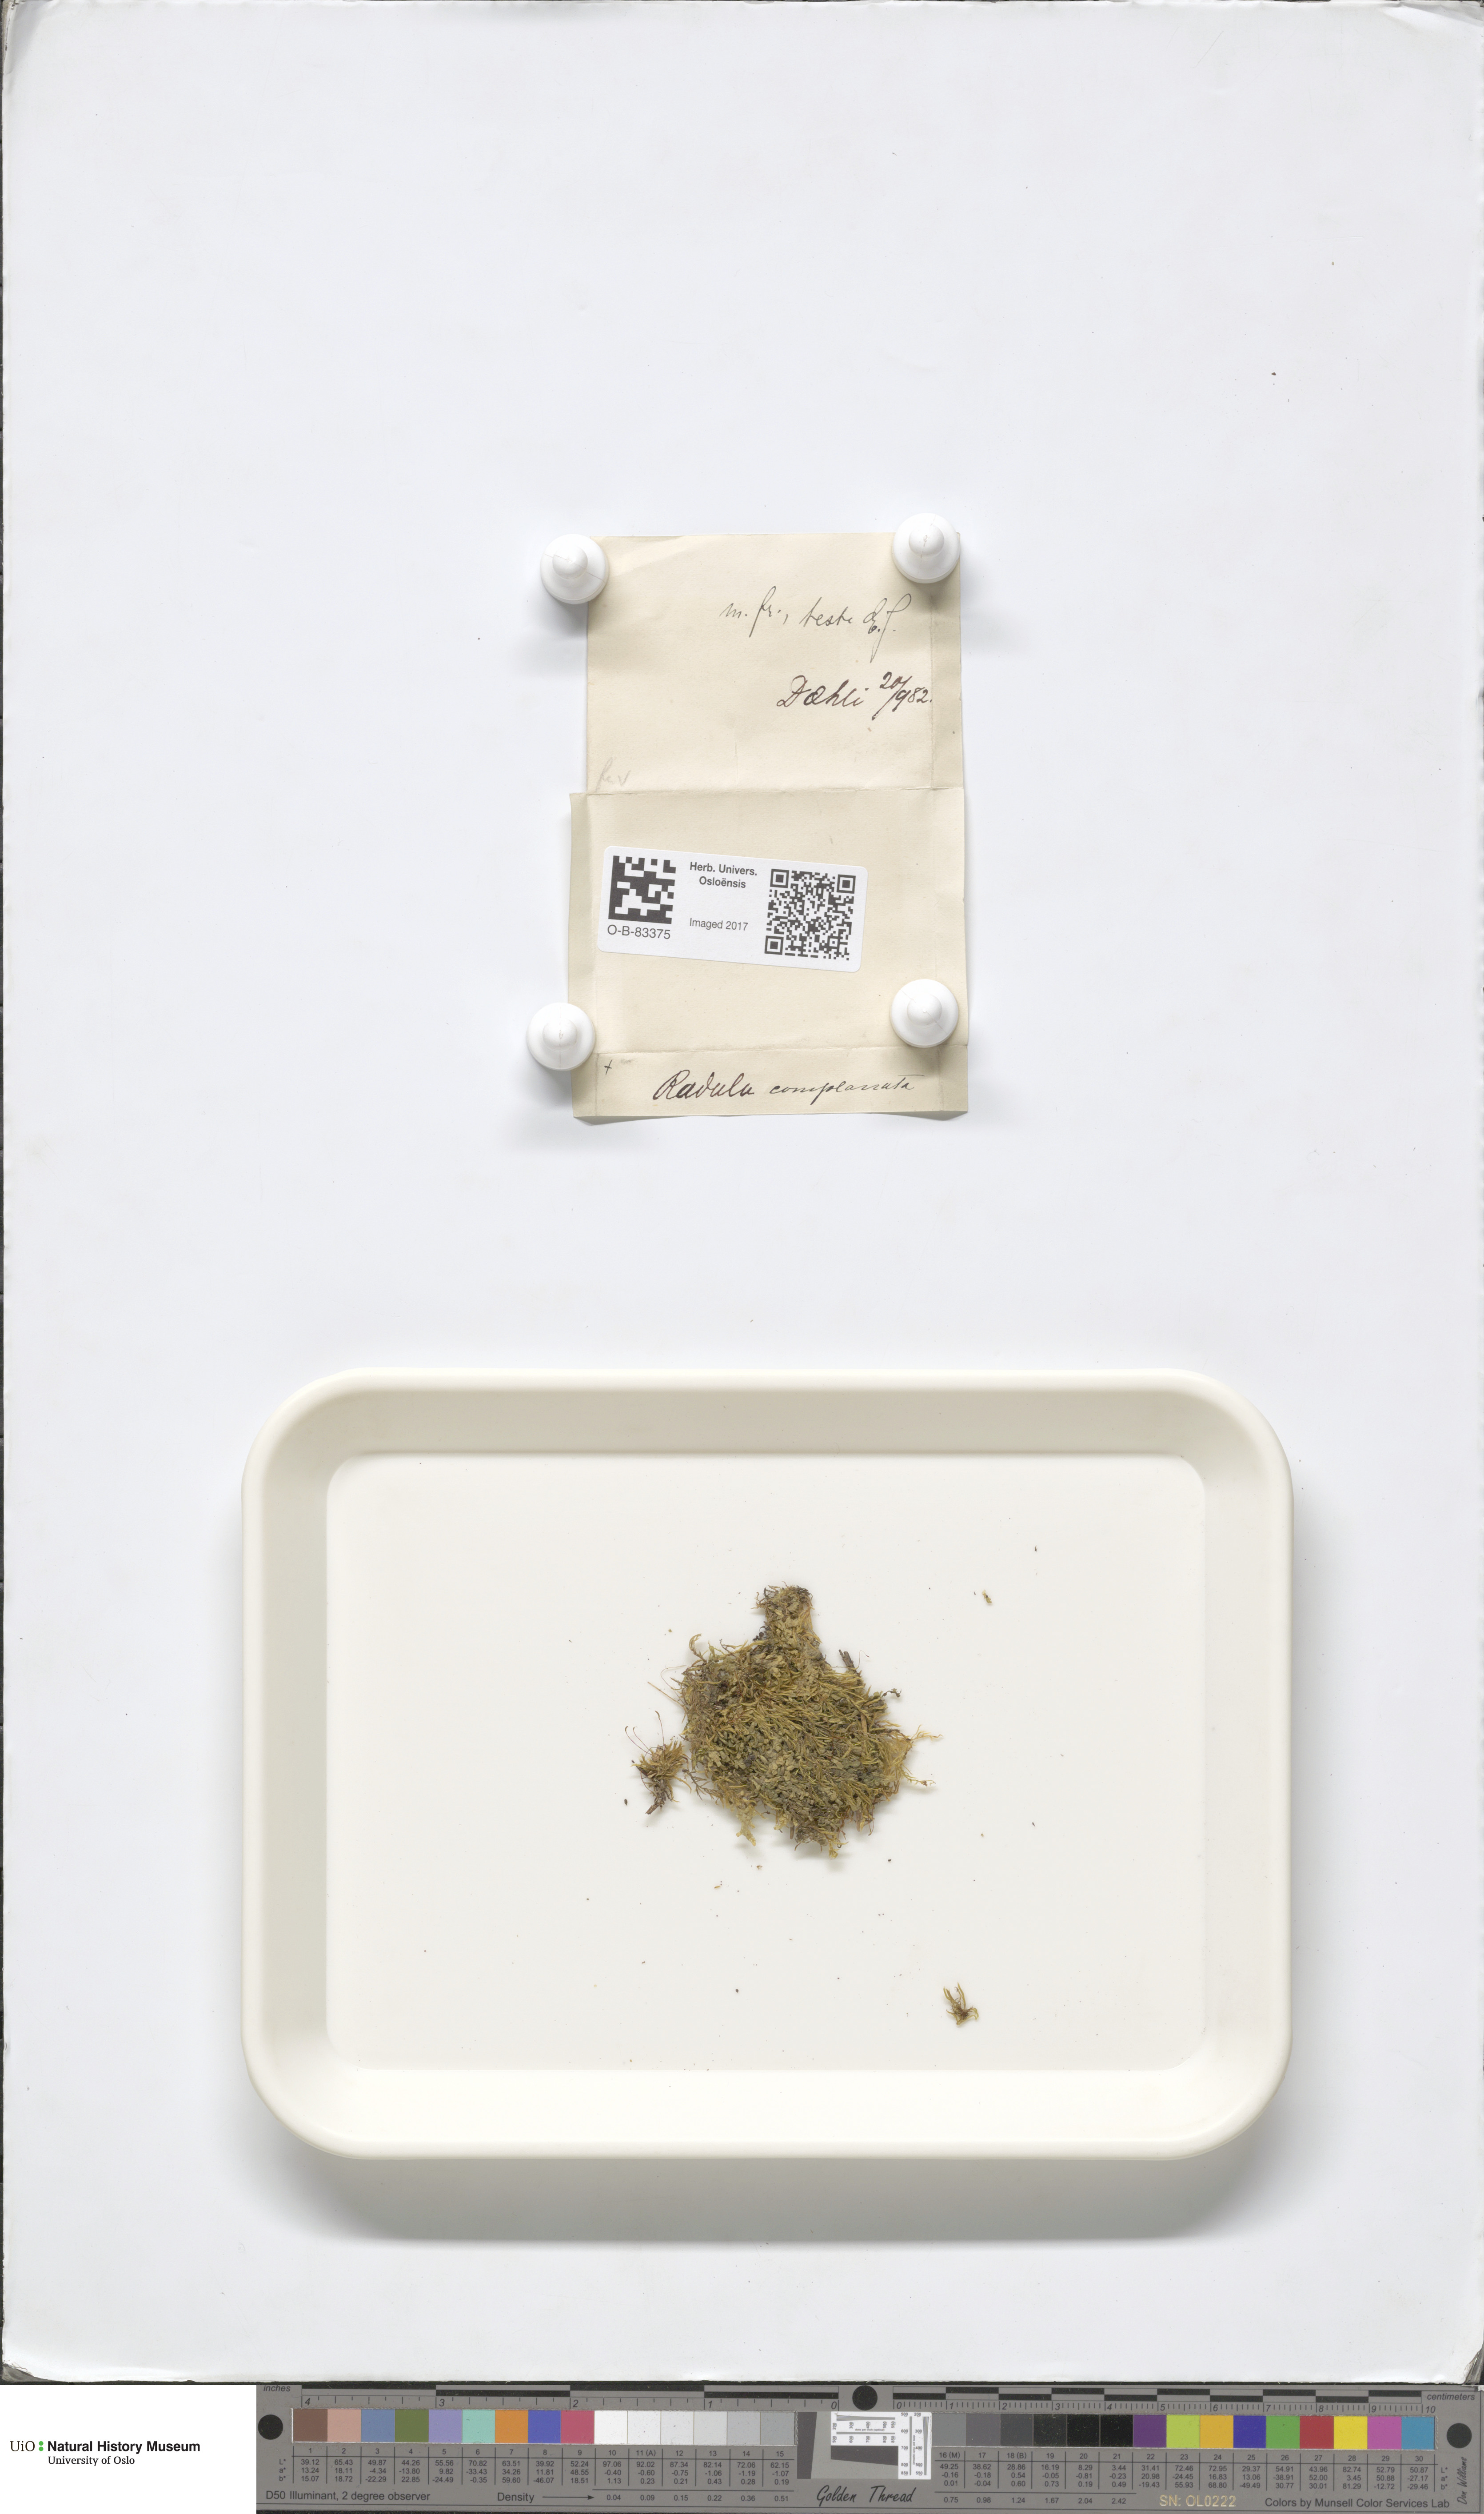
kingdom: Plantae
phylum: Marchantiophyta
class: Jungermanniopsida
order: Porellales
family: Radulaceae
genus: Radula
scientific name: Radula complanata
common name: Flat-leaved scalewort
